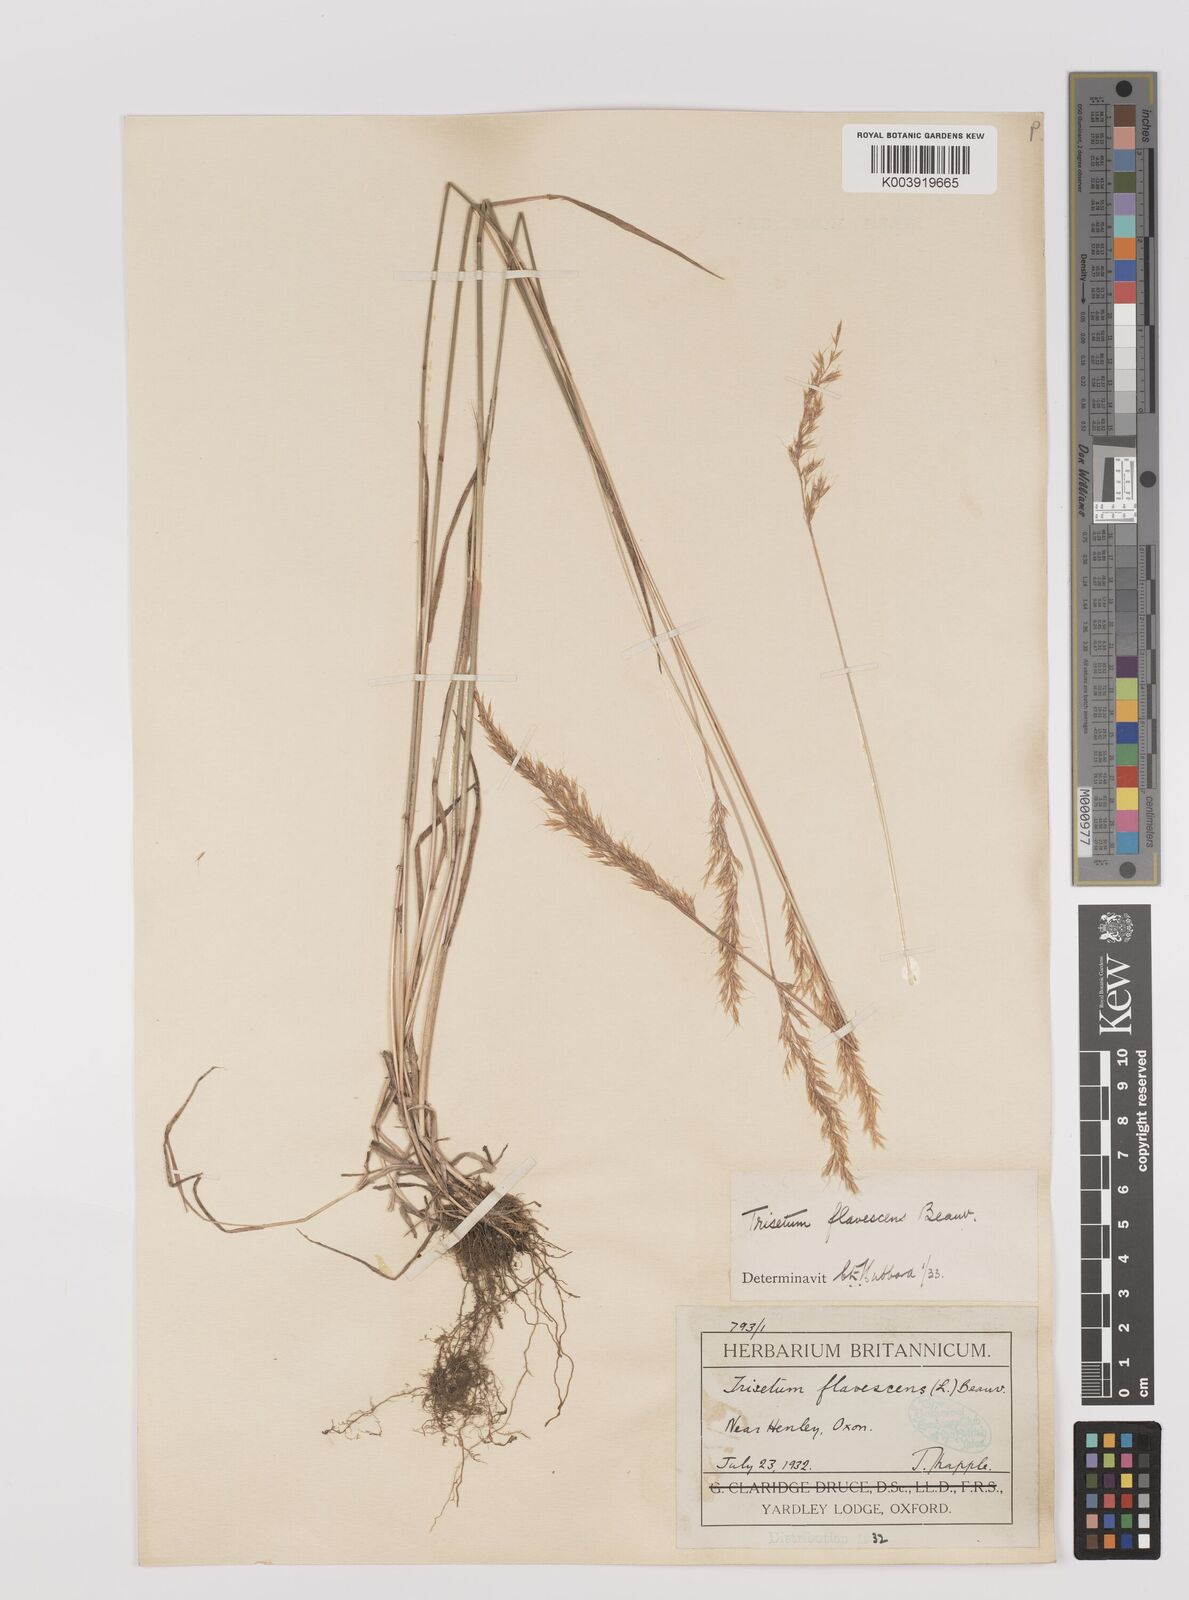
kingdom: Plantae
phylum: Tracheophyta
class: Liliopsida
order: Poales
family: Poaceae
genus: Trisetum
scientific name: Trisetum flavescens
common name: Yellow oat-grass
